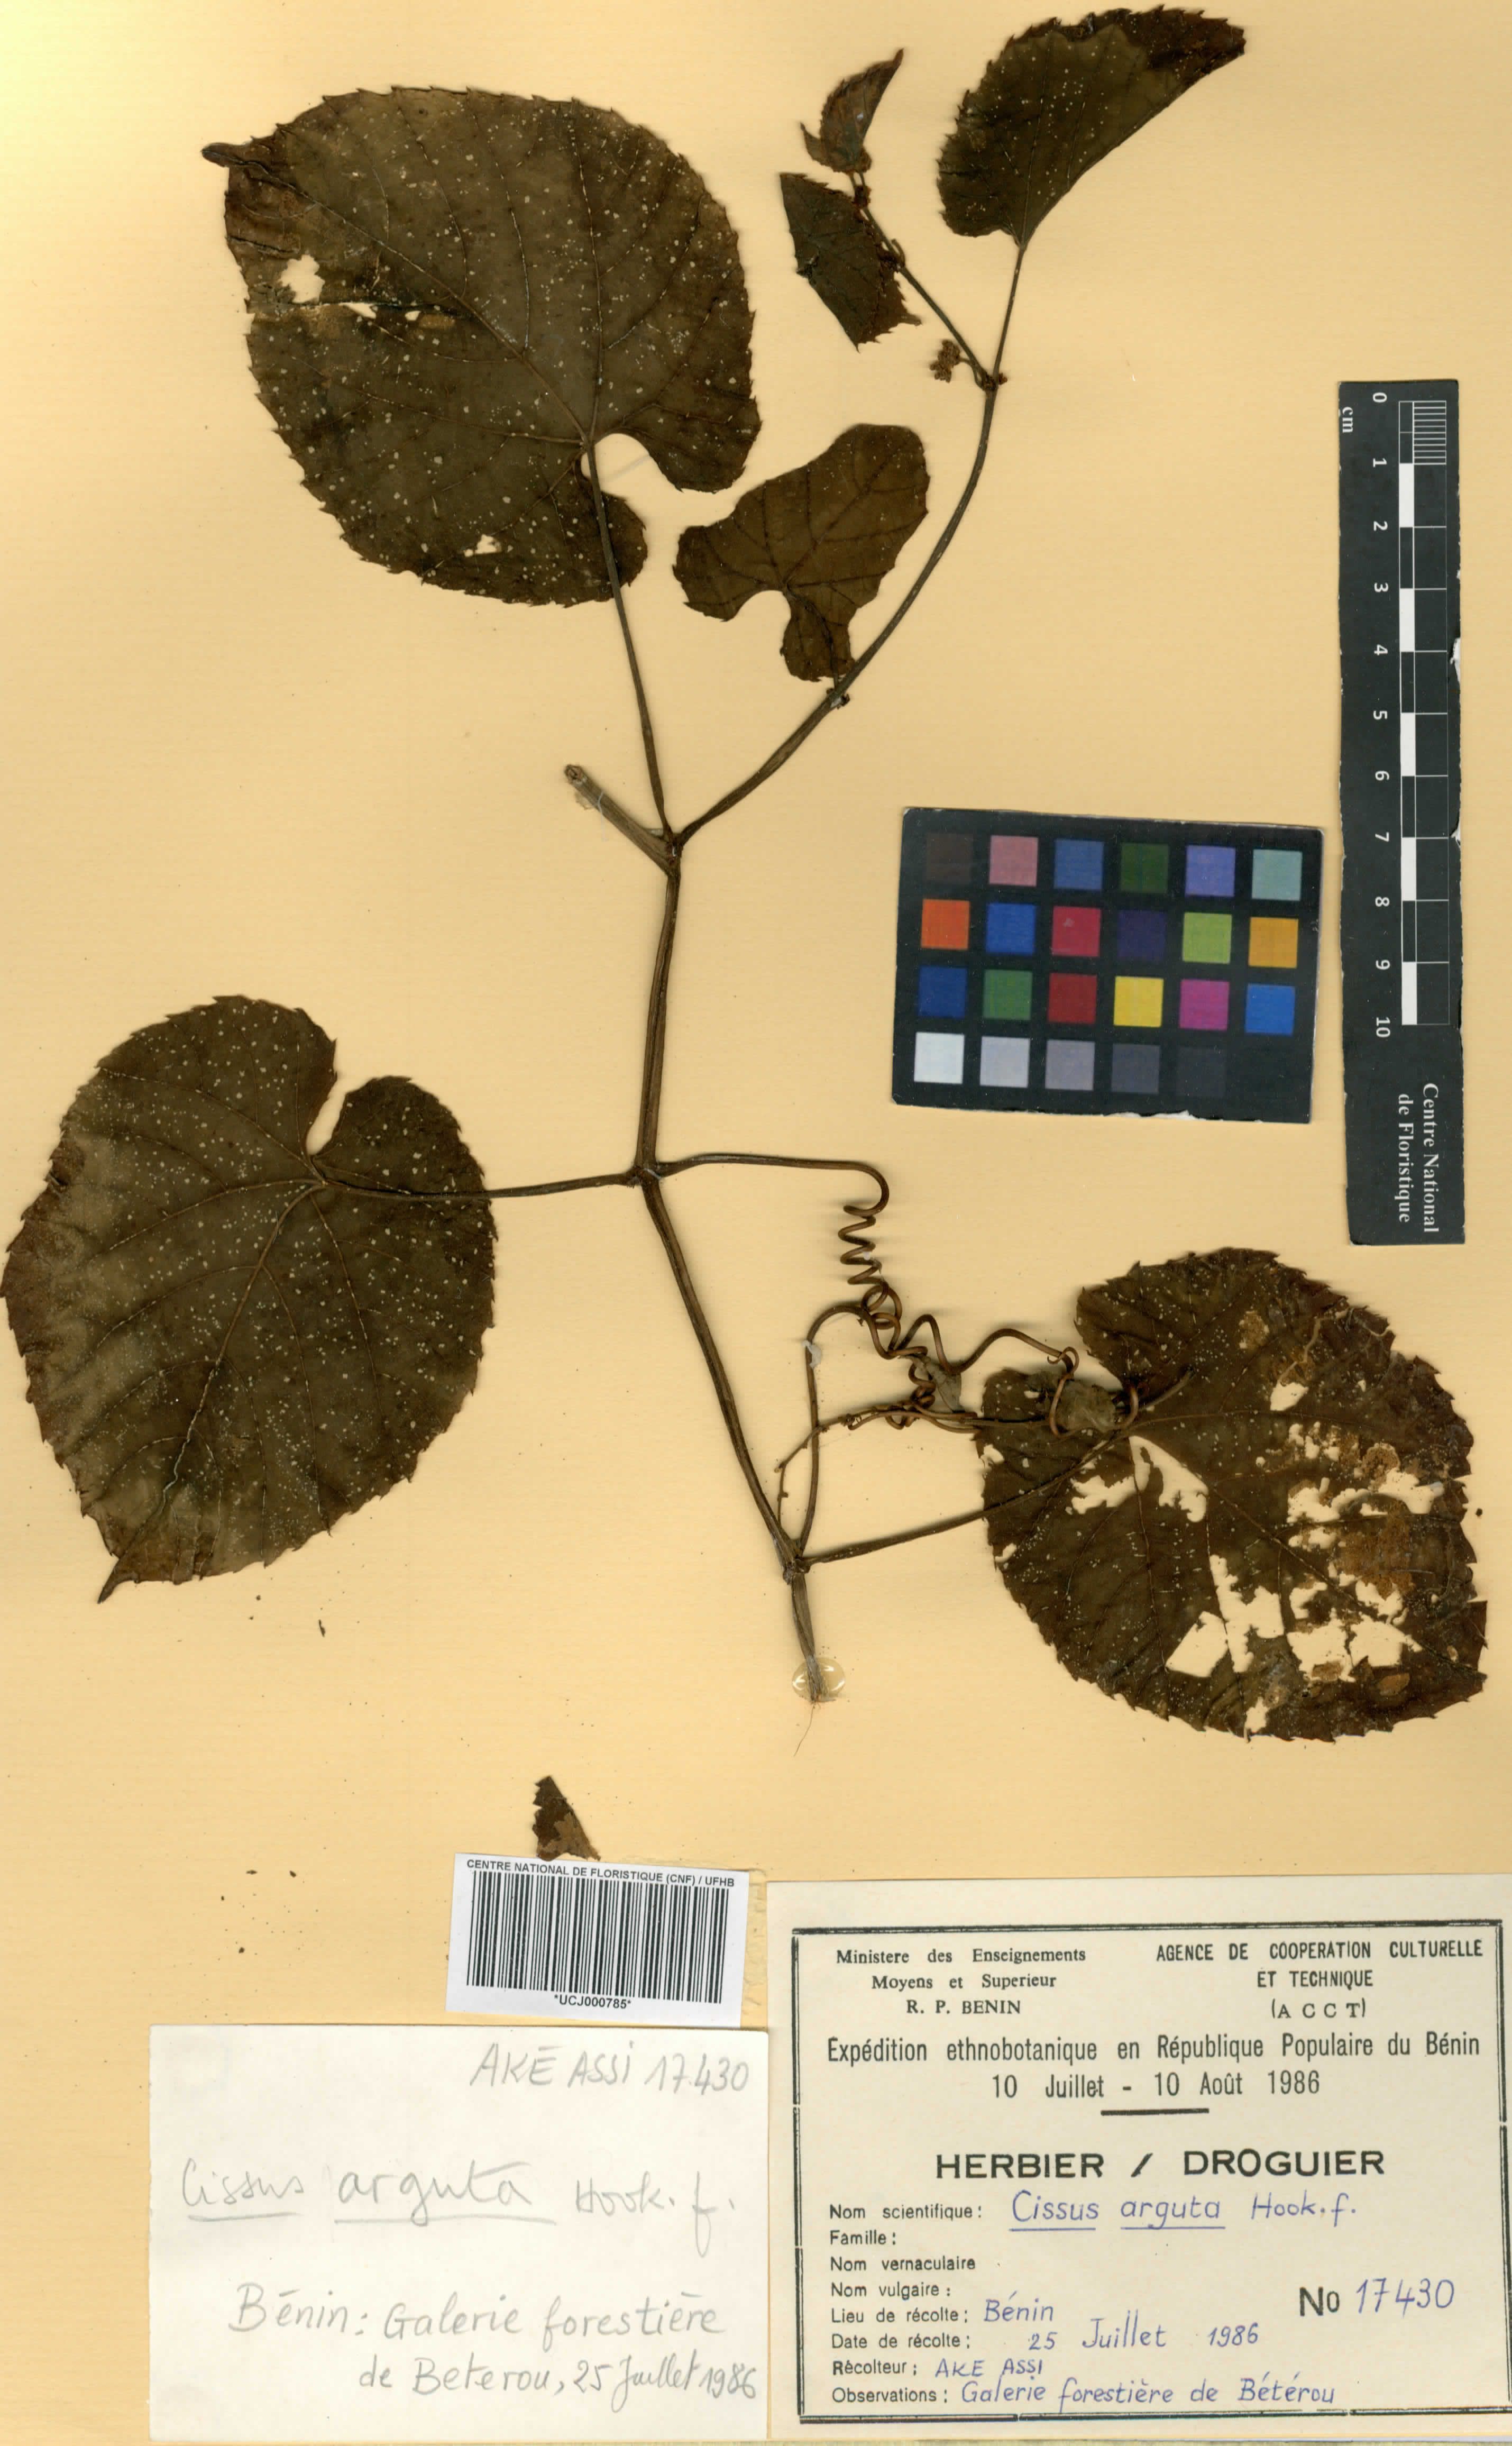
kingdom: Plantae
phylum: Tracheophyta
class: Magnoliopsida
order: Vitales
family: Vitaceae
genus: Cissus
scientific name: Cissus arguta
